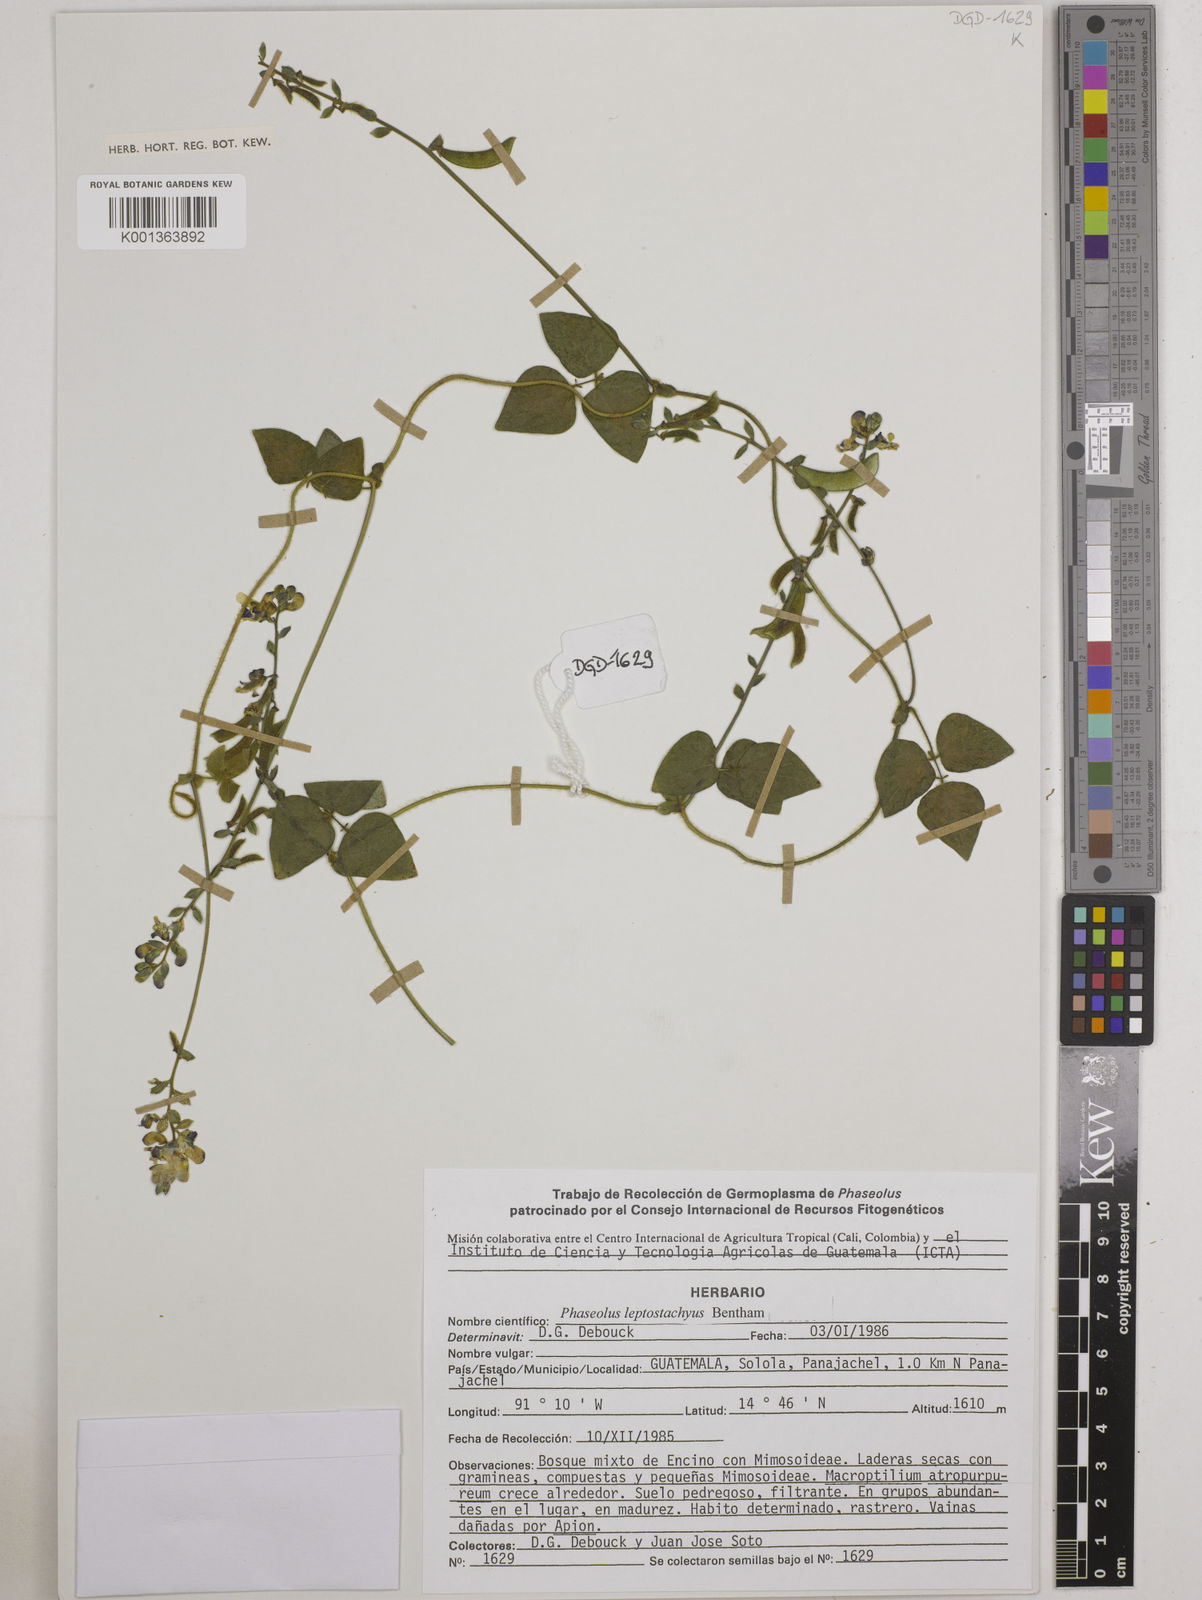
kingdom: Plantae
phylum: Tracheophyta
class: Magnoliopsida
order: Fabales
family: Fabaceae
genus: Phaseolus
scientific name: Phaseolus leptostachyus
